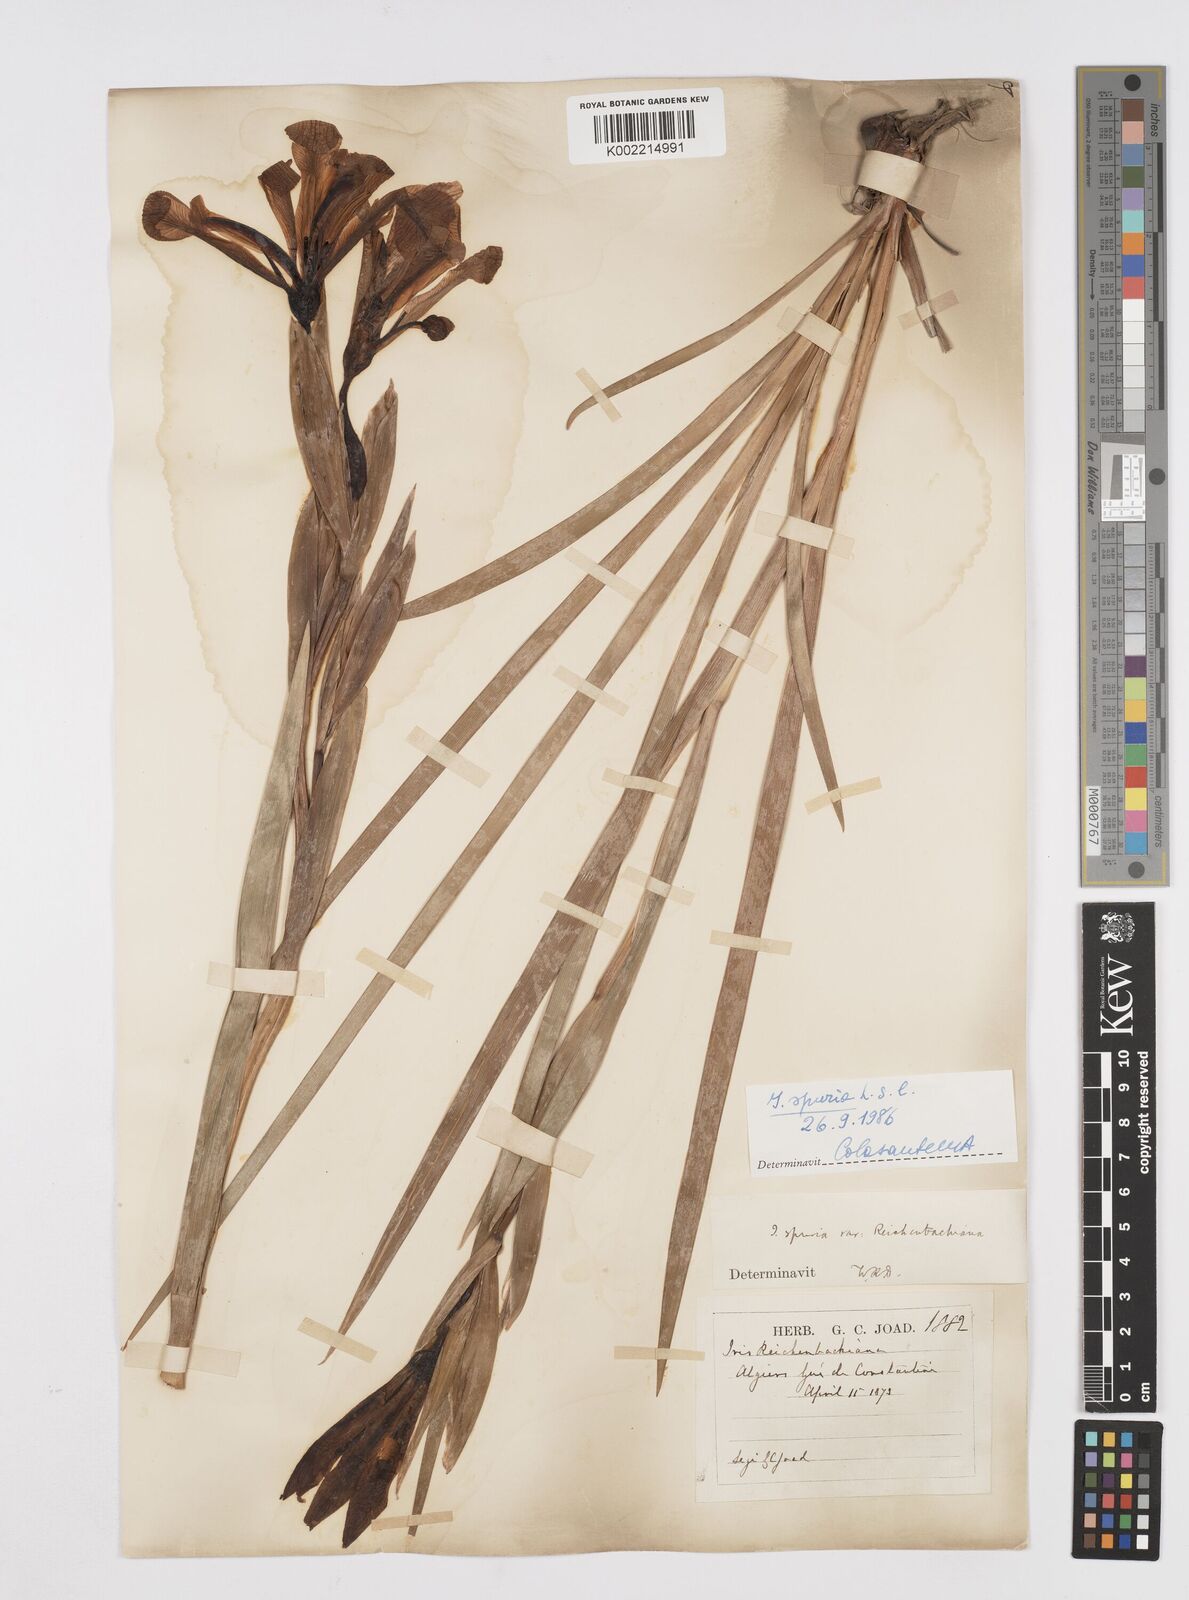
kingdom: Plantae
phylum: Tracheophyta
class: Liliopsida
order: Asparagales
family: Iridaceae
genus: Iris
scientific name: Iris spuria
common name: Blue iris
